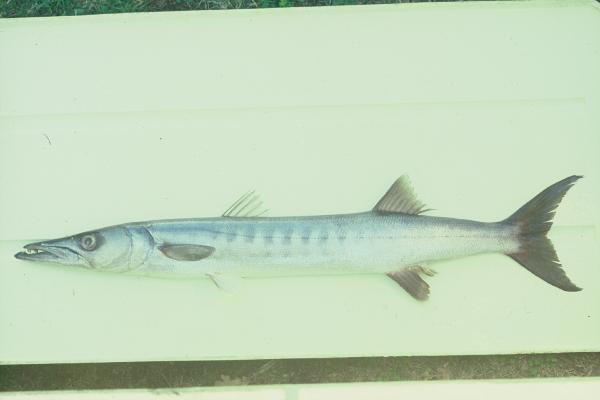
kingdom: Animalia
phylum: Chordata
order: Perciformes
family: Sphyraenidae
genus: Sphyraena
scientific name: Sphyraena jello
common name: Pickhandle barracuda
